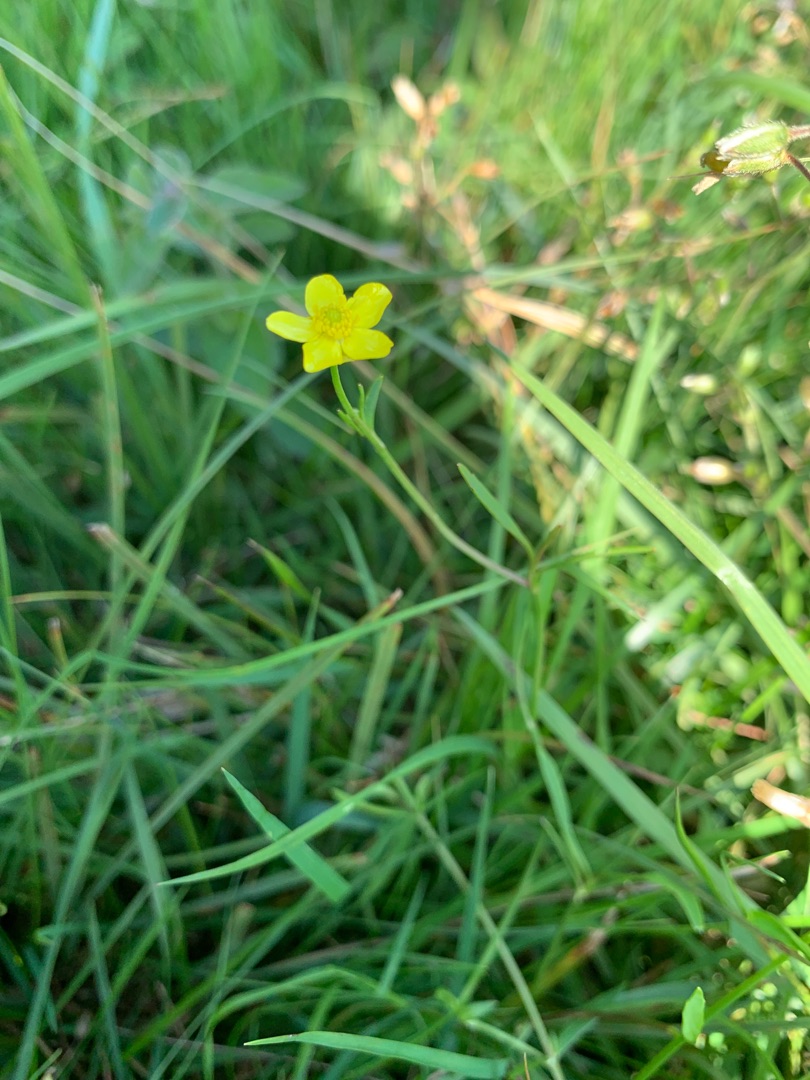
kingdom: Plantae
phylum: Tracheophyta
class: Magnoliopsida
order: Ranunculales
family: Ranunculaceae
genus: Ranunculus
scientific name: Ranunculus
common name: Ranunkelslægten
